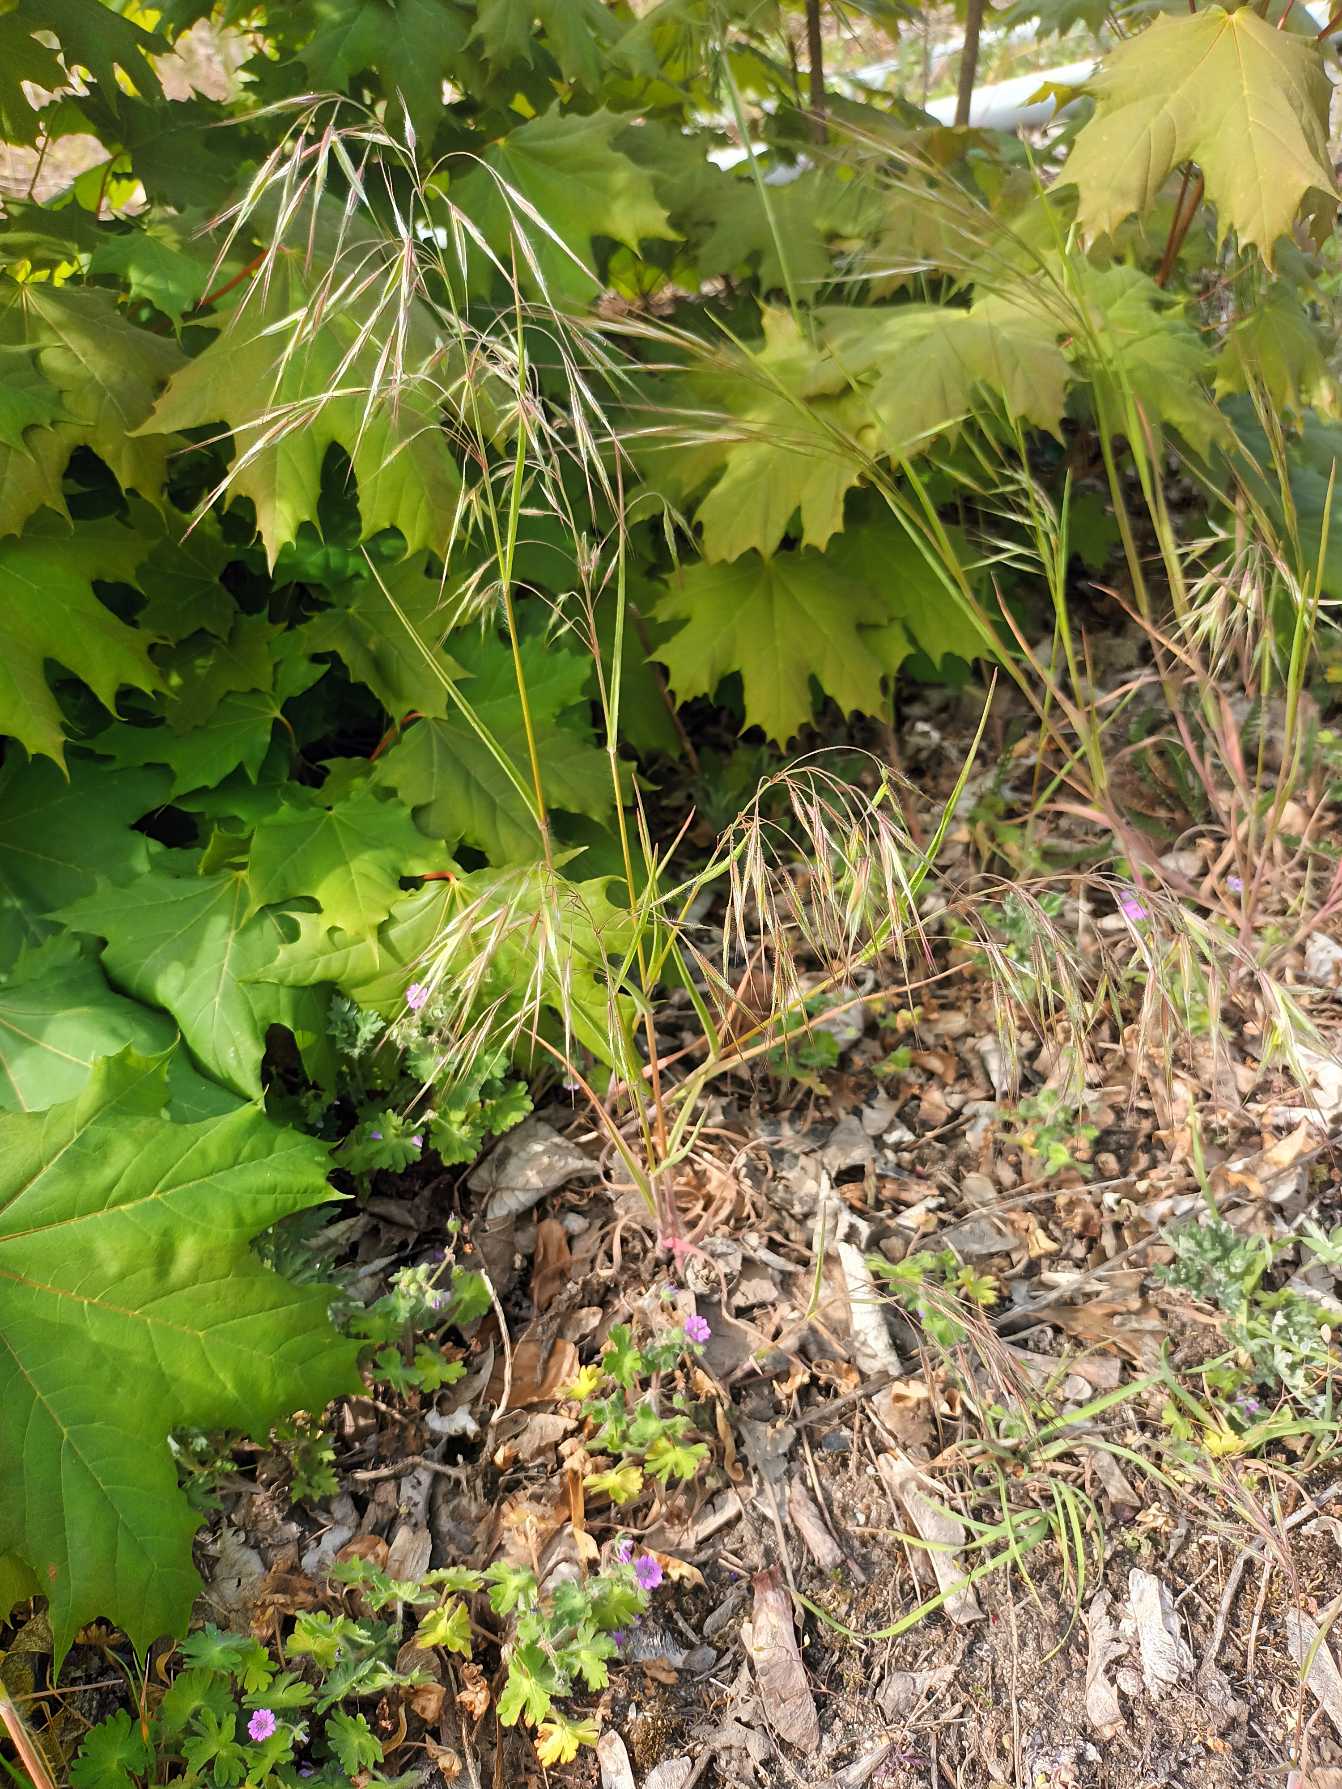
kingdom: Plantae
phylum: Tracheophyta
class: Liliopsida
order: Poales
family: Poaceae
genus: Bromus
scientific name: Bromus tectorum
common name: Tag-hejre
